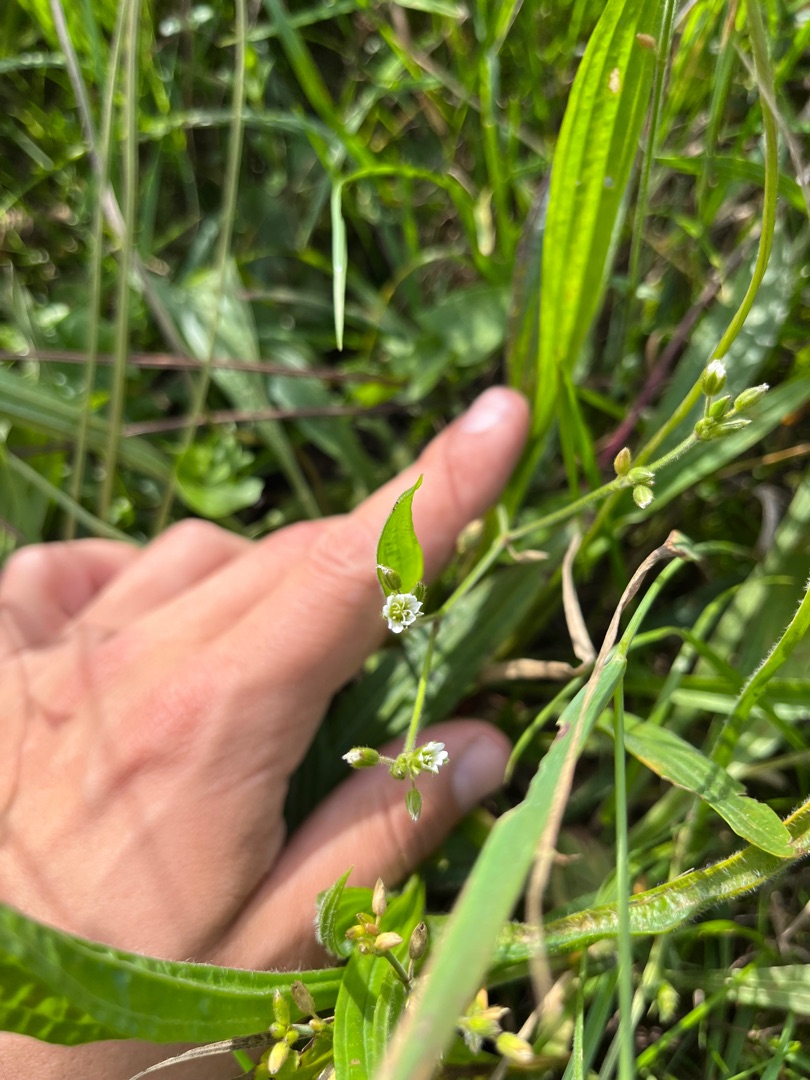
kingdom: Plantae
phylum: Tracheophyta
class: Magnoliopsida
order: Caryophyllales
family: Caryophyllaceae
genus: Cerastium
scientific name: Cerastium fontanum
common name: Almindelig hønsetarm
